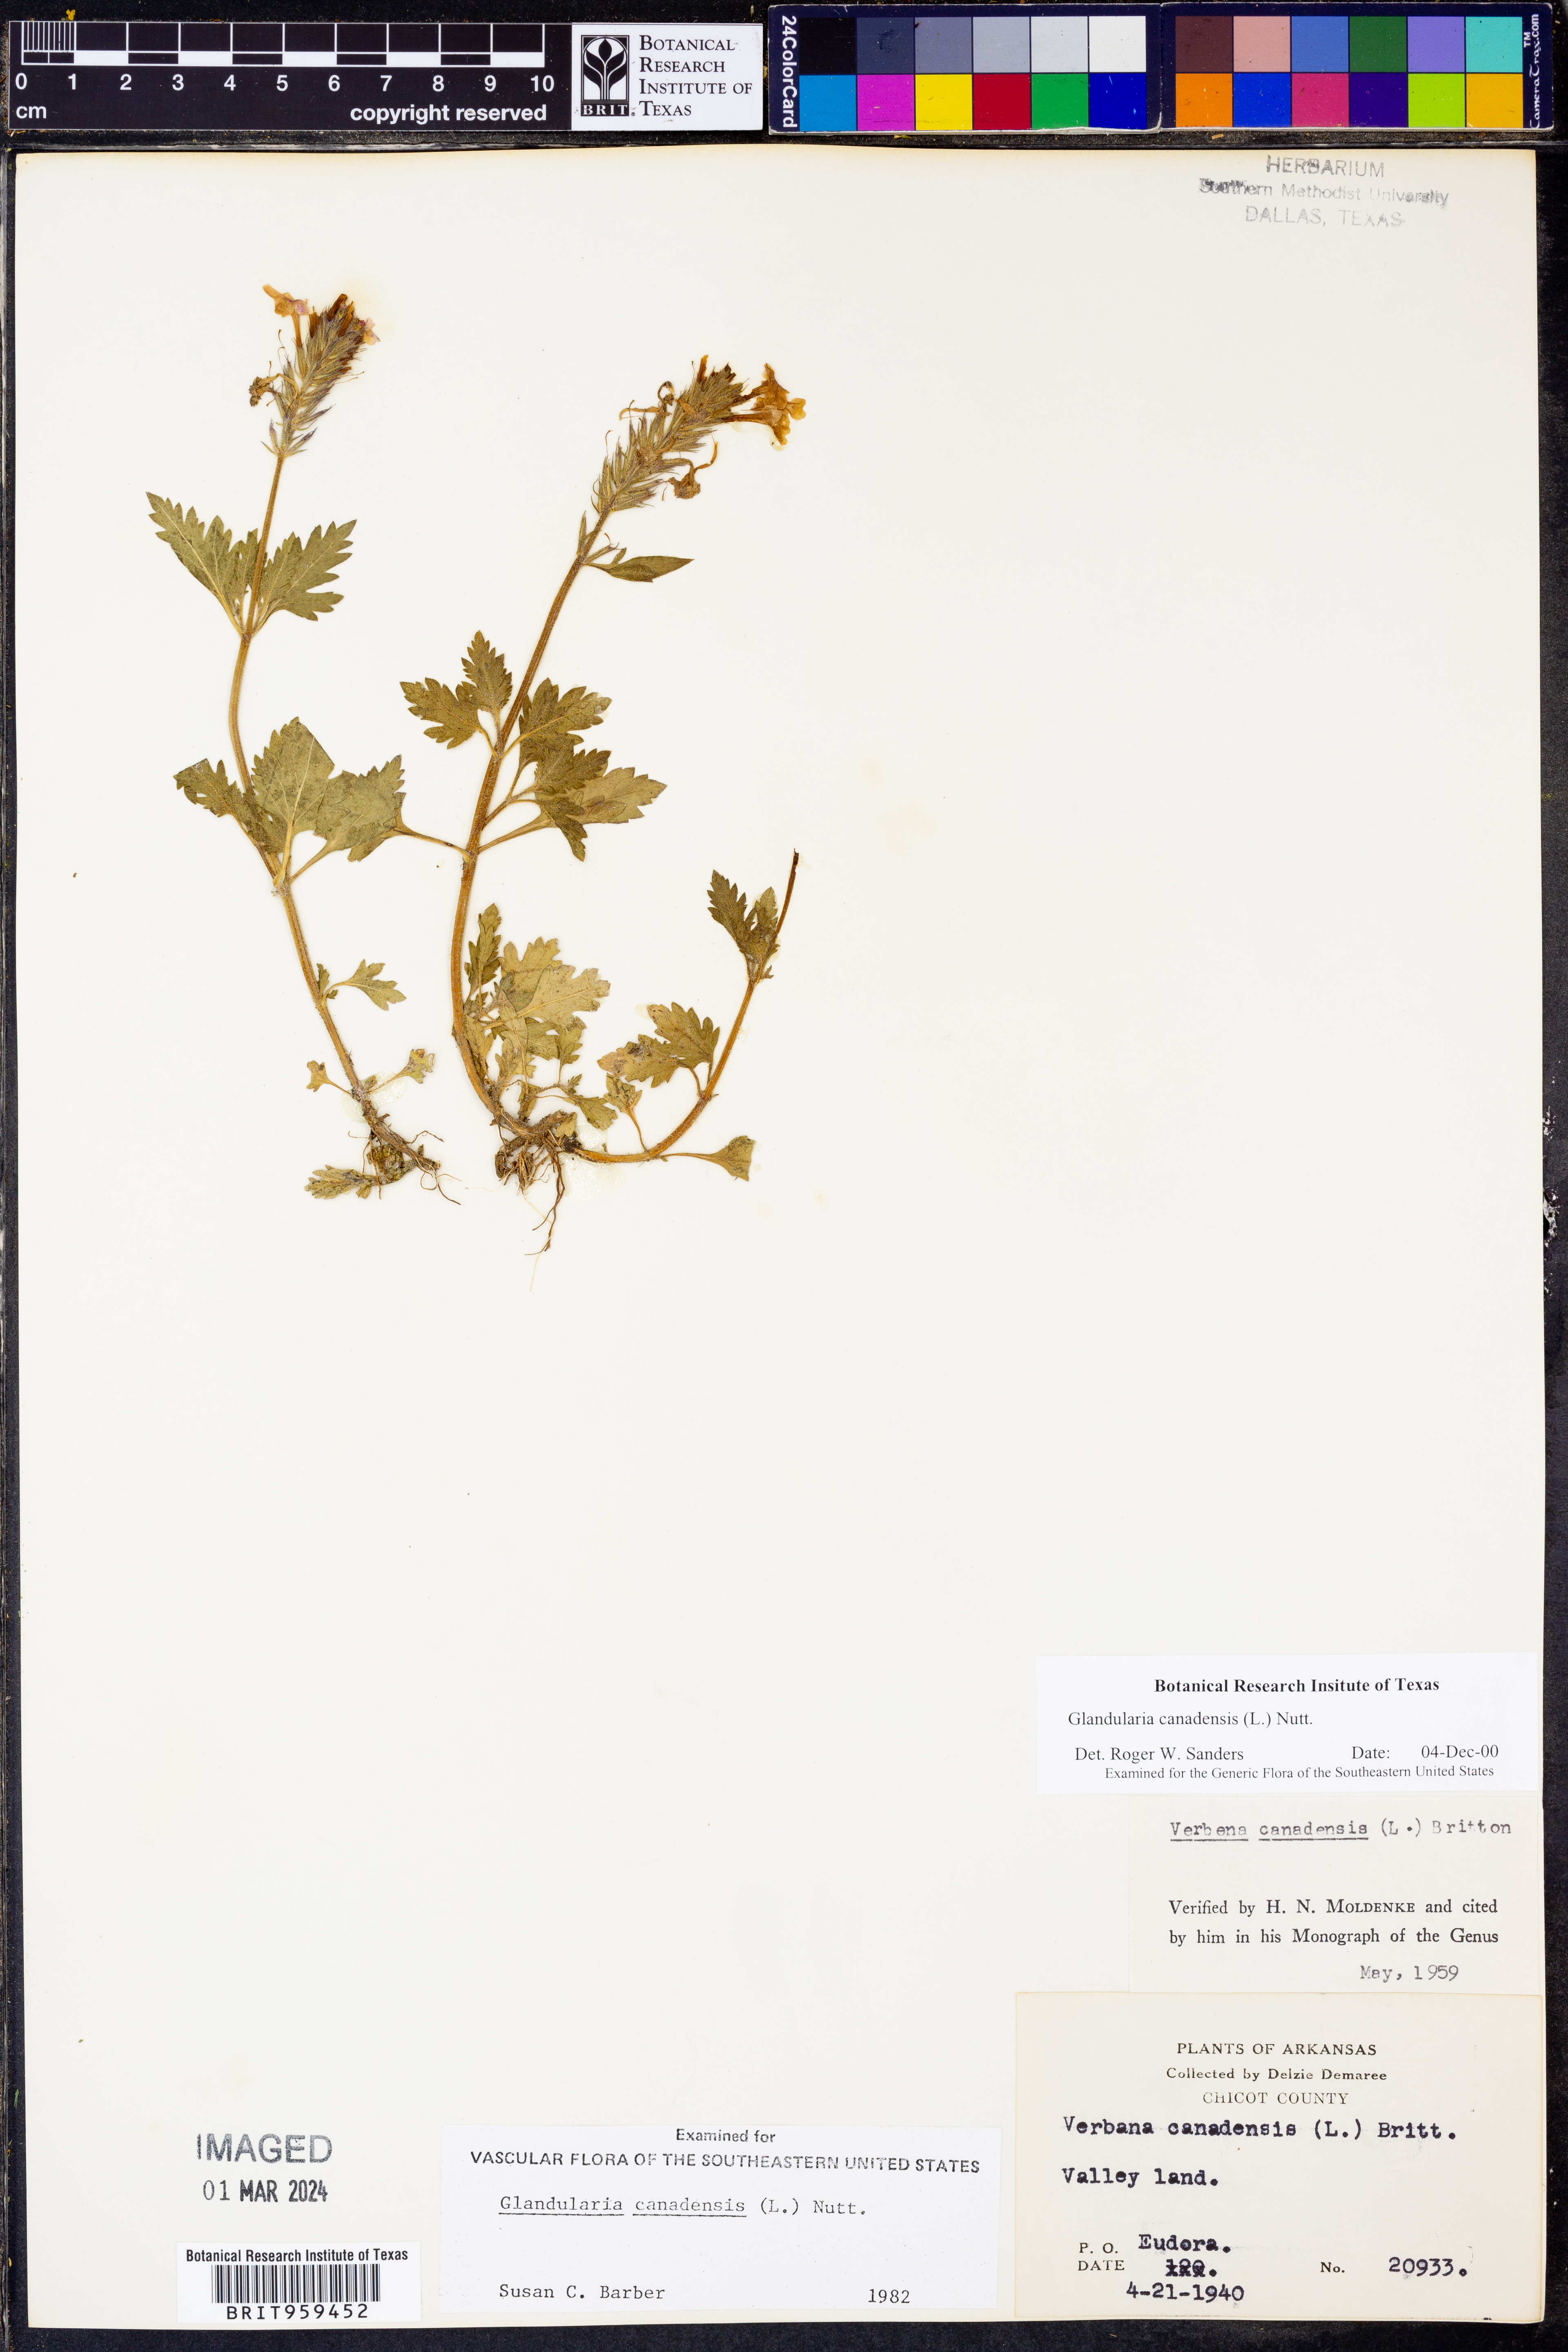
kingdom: Plantae
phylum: Tracheophyta
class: Magnoliopsida
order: Lamiales
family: Verbenaceae
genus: Verbena
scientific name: Verbena canadensis
